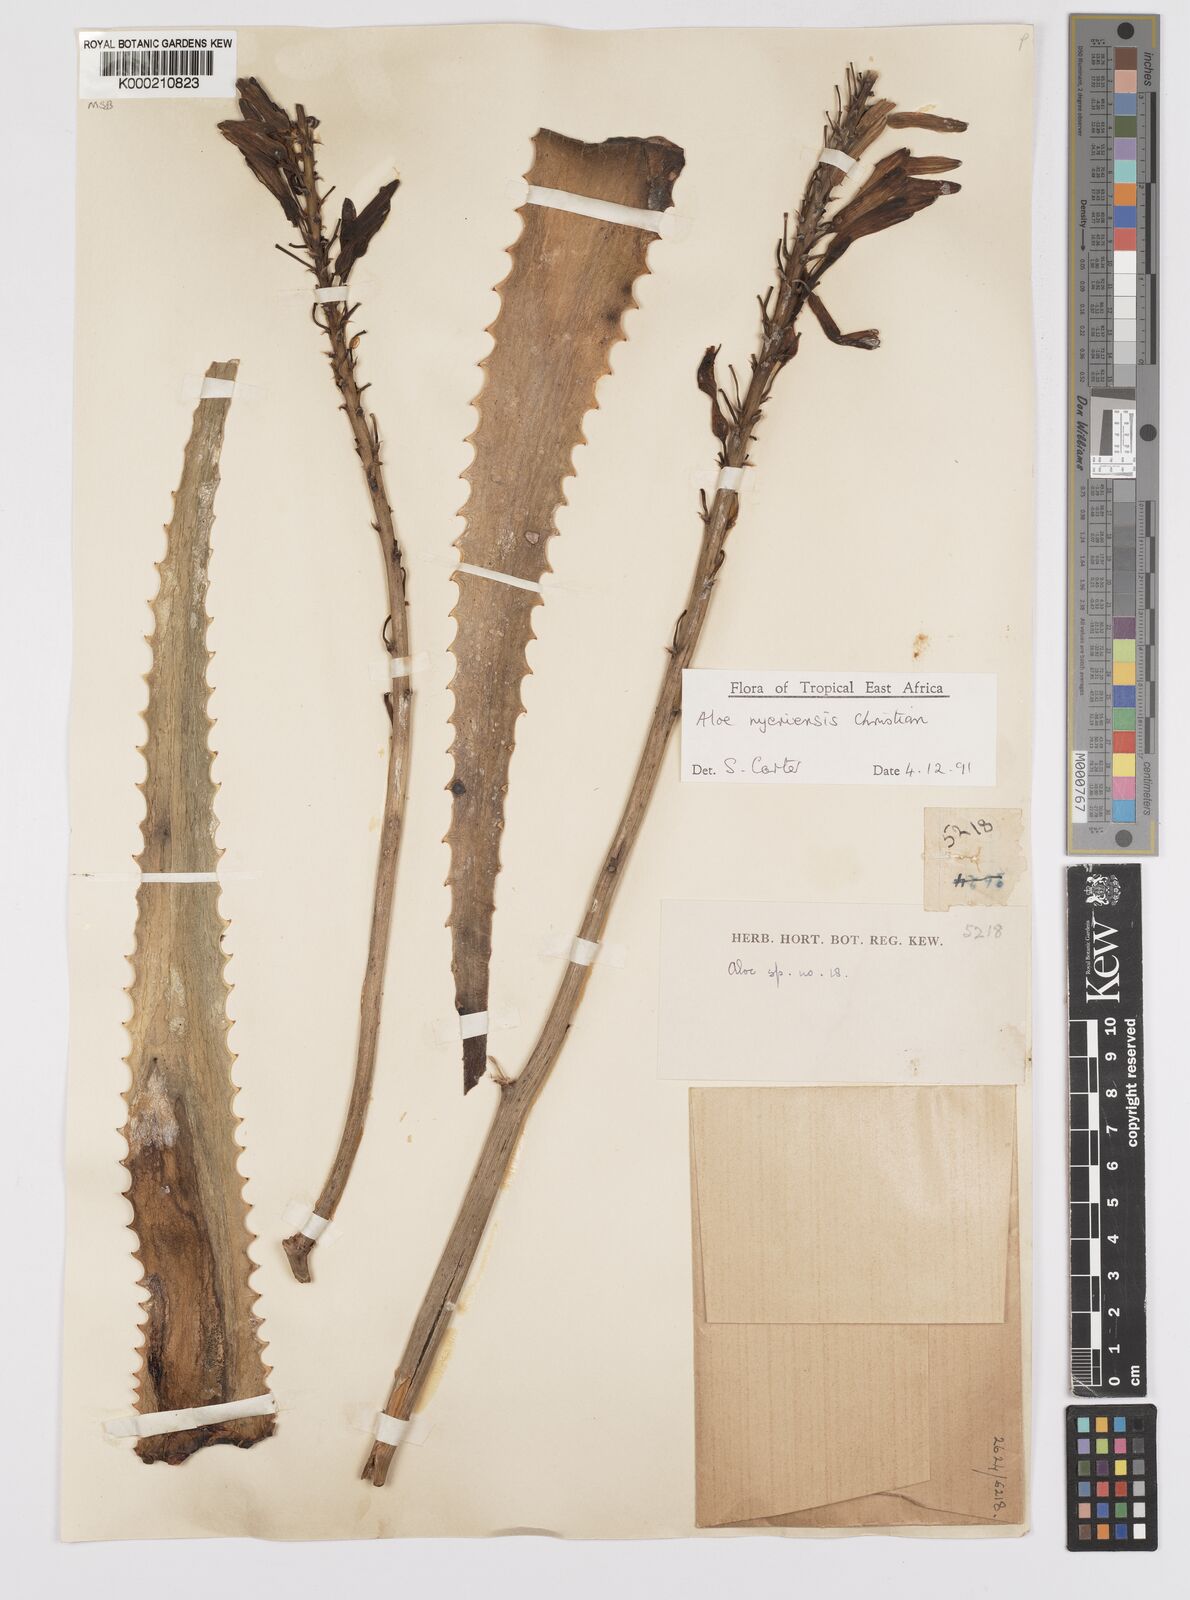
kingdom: Plantae
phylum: Tracheophyta
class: Liliopsida
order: Asparagales
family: Asphodelaceae
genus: Aloe
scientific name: Aloe nyeriensis
